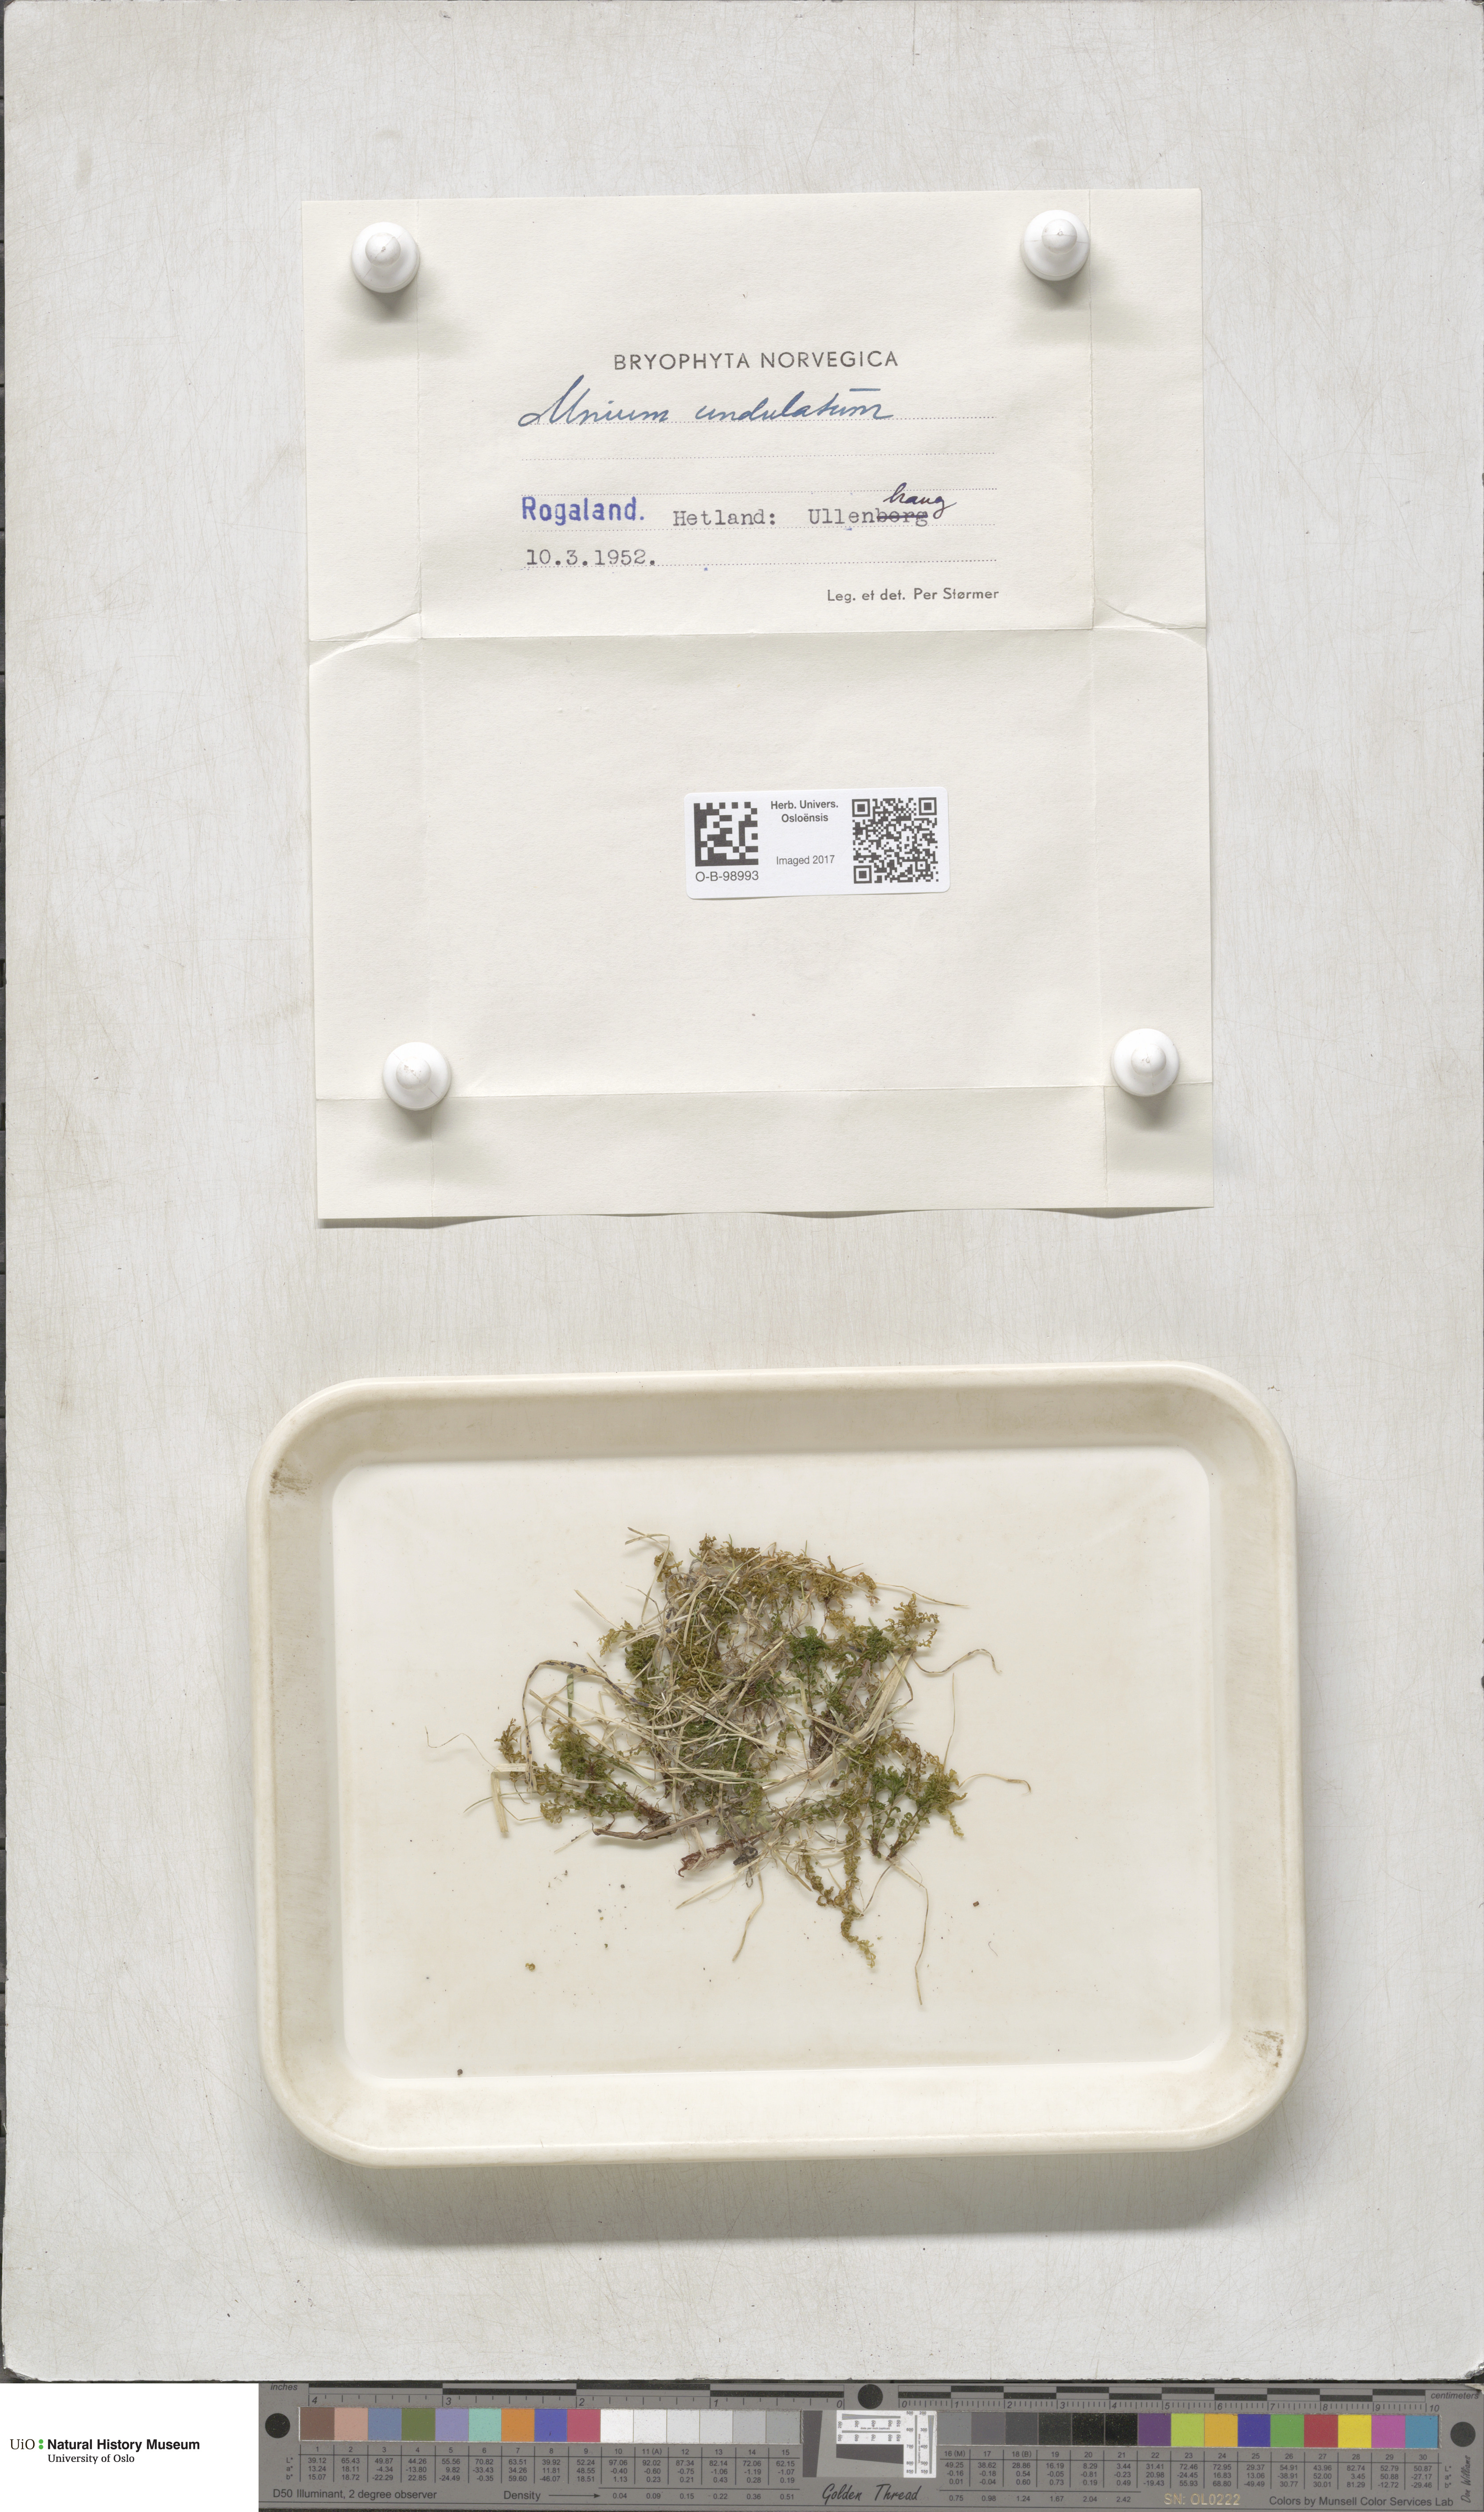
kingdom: Plantae
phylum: Bryophyta
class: Bryopsida
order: Bryales
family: Mniaceae
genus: Plagiomnium
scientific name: Plagiomnium undulatum
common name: Hart's-tongue thyme-moss
